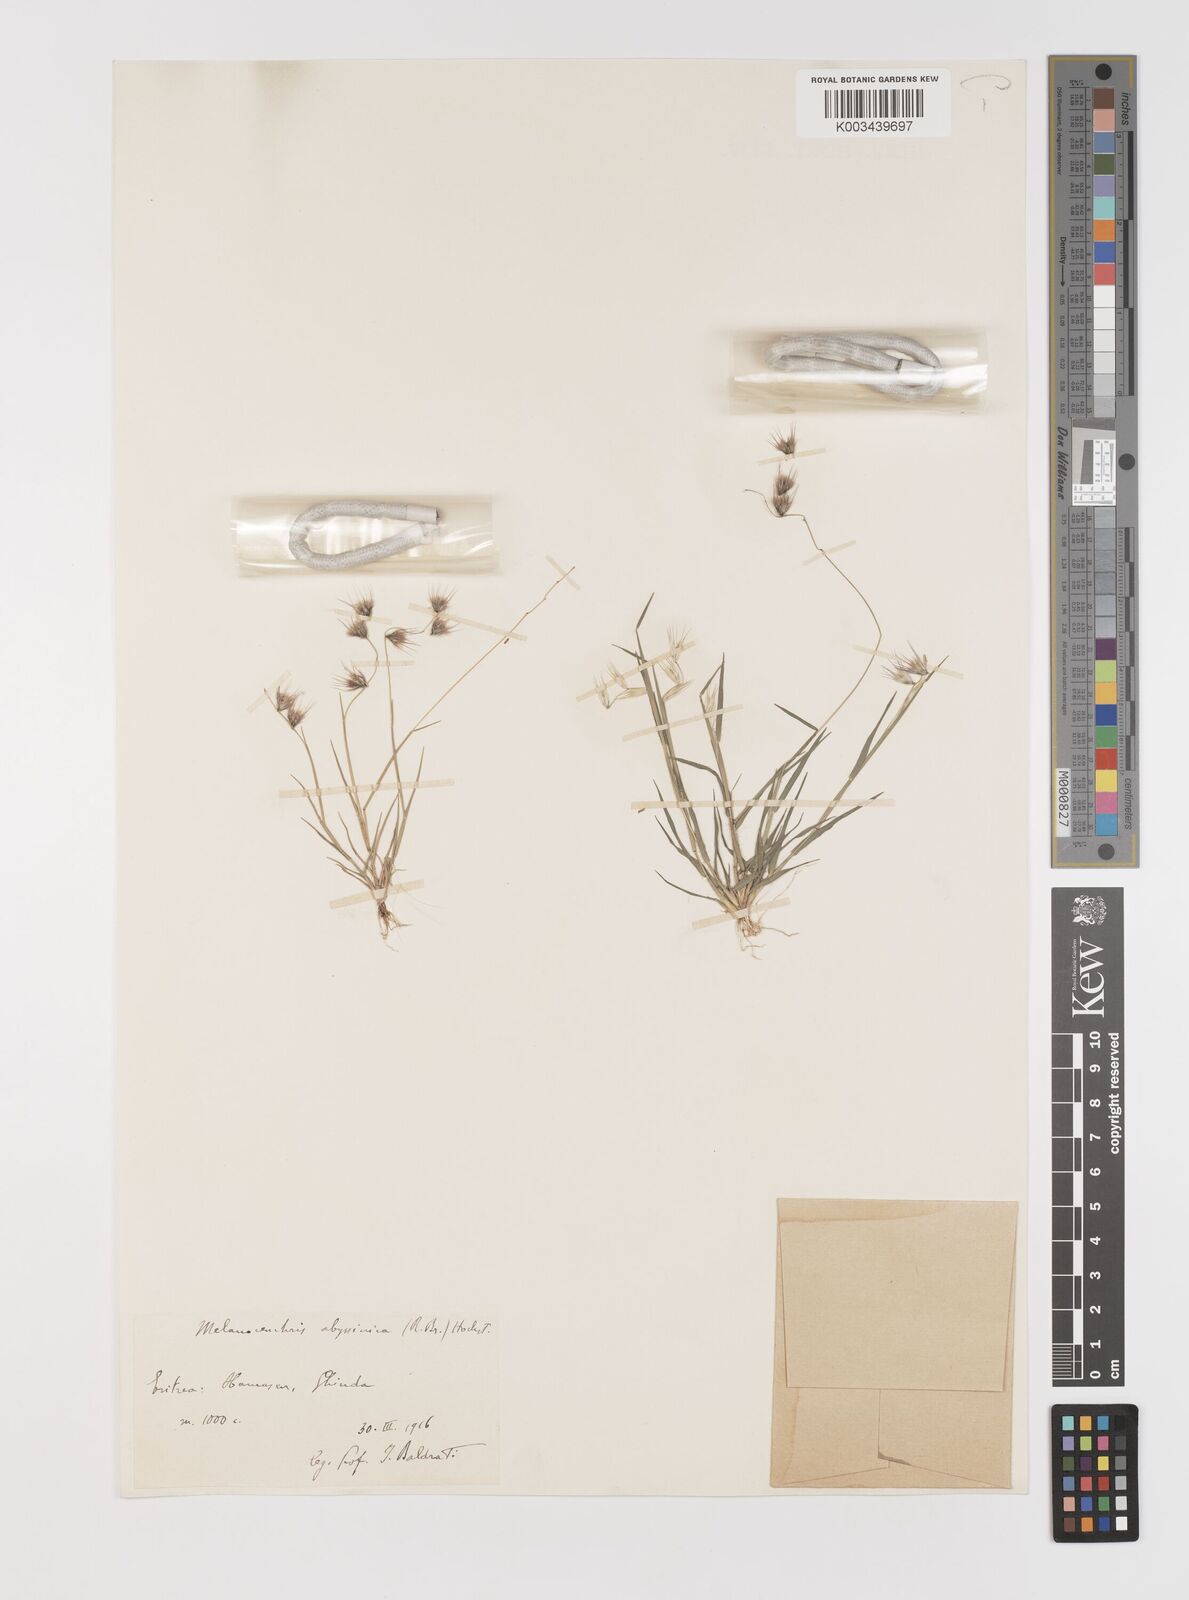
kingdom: Plantae
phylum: Tracheophyta
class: Liliopsida
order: Poales
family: Poaceae
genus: Melanocenchris
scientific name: Melanocenchris abyssinica
